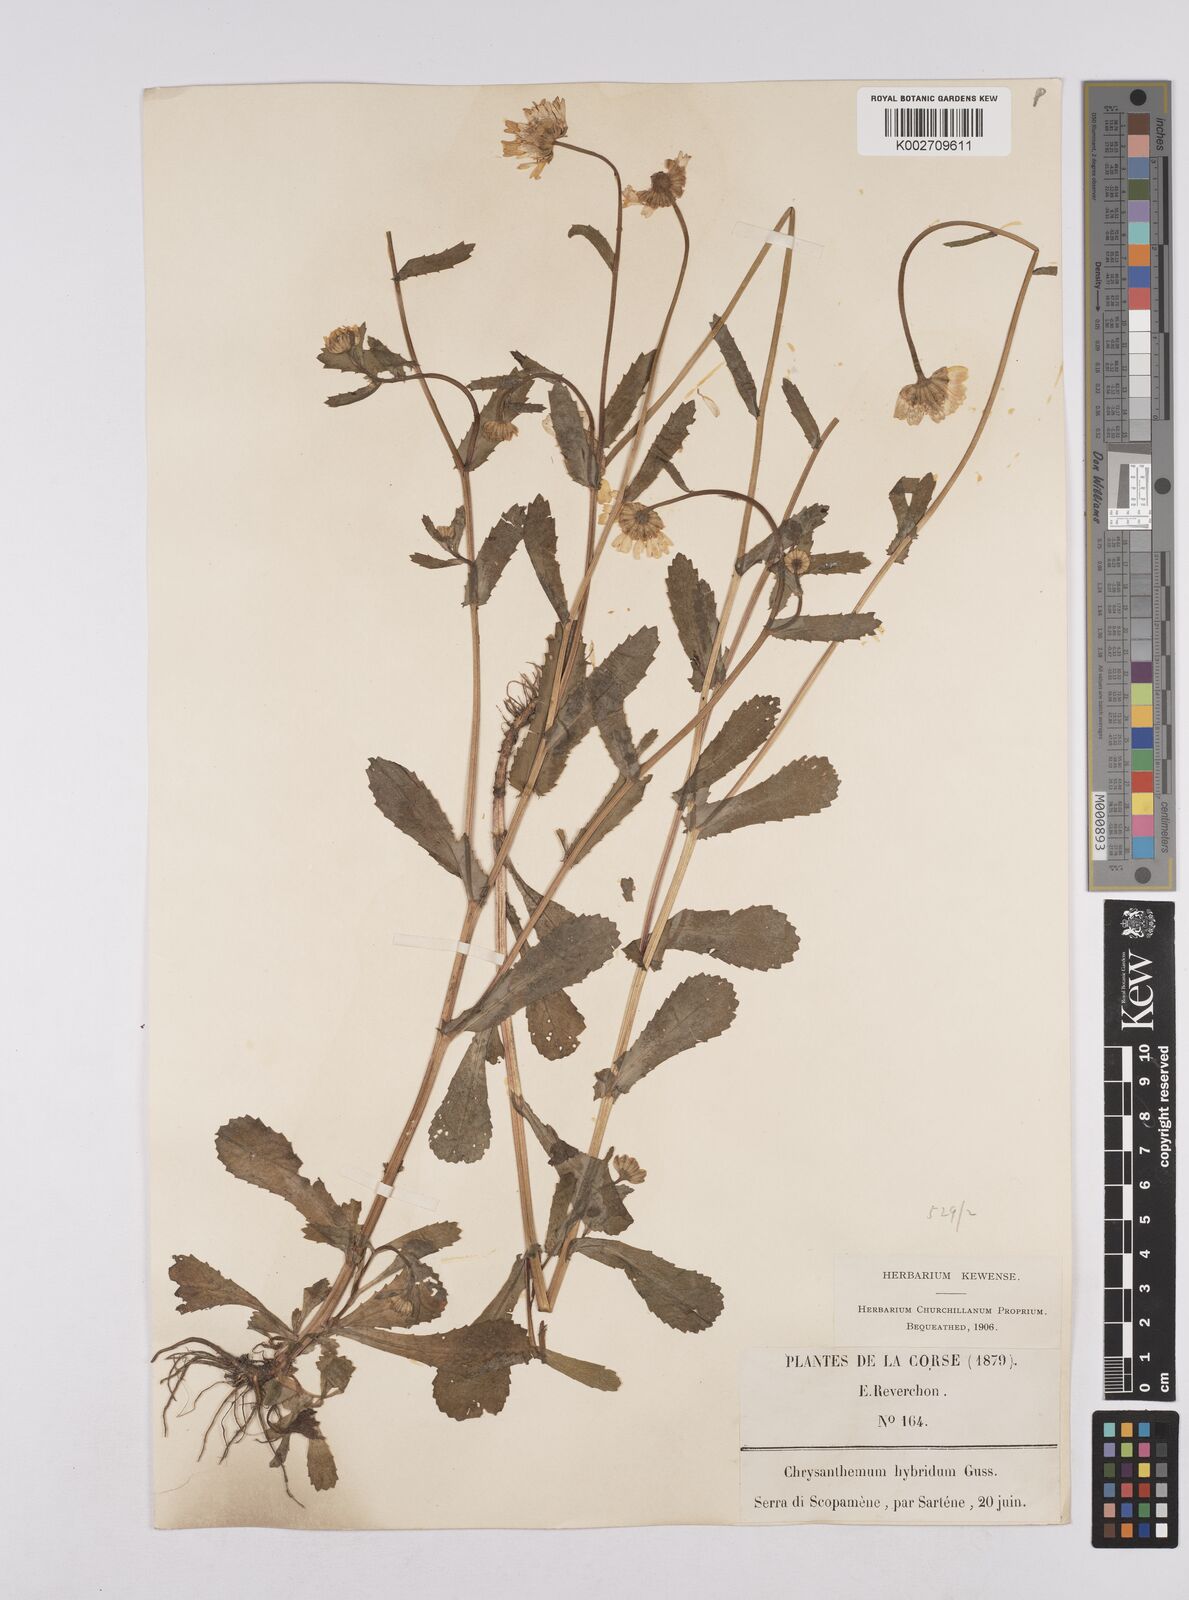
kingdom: Plantae
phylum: Tracheophyta
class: Magnoliopsida
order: Asterales
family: Asteraceae
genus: Coleostephus
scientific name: Coleostephus paludosus
